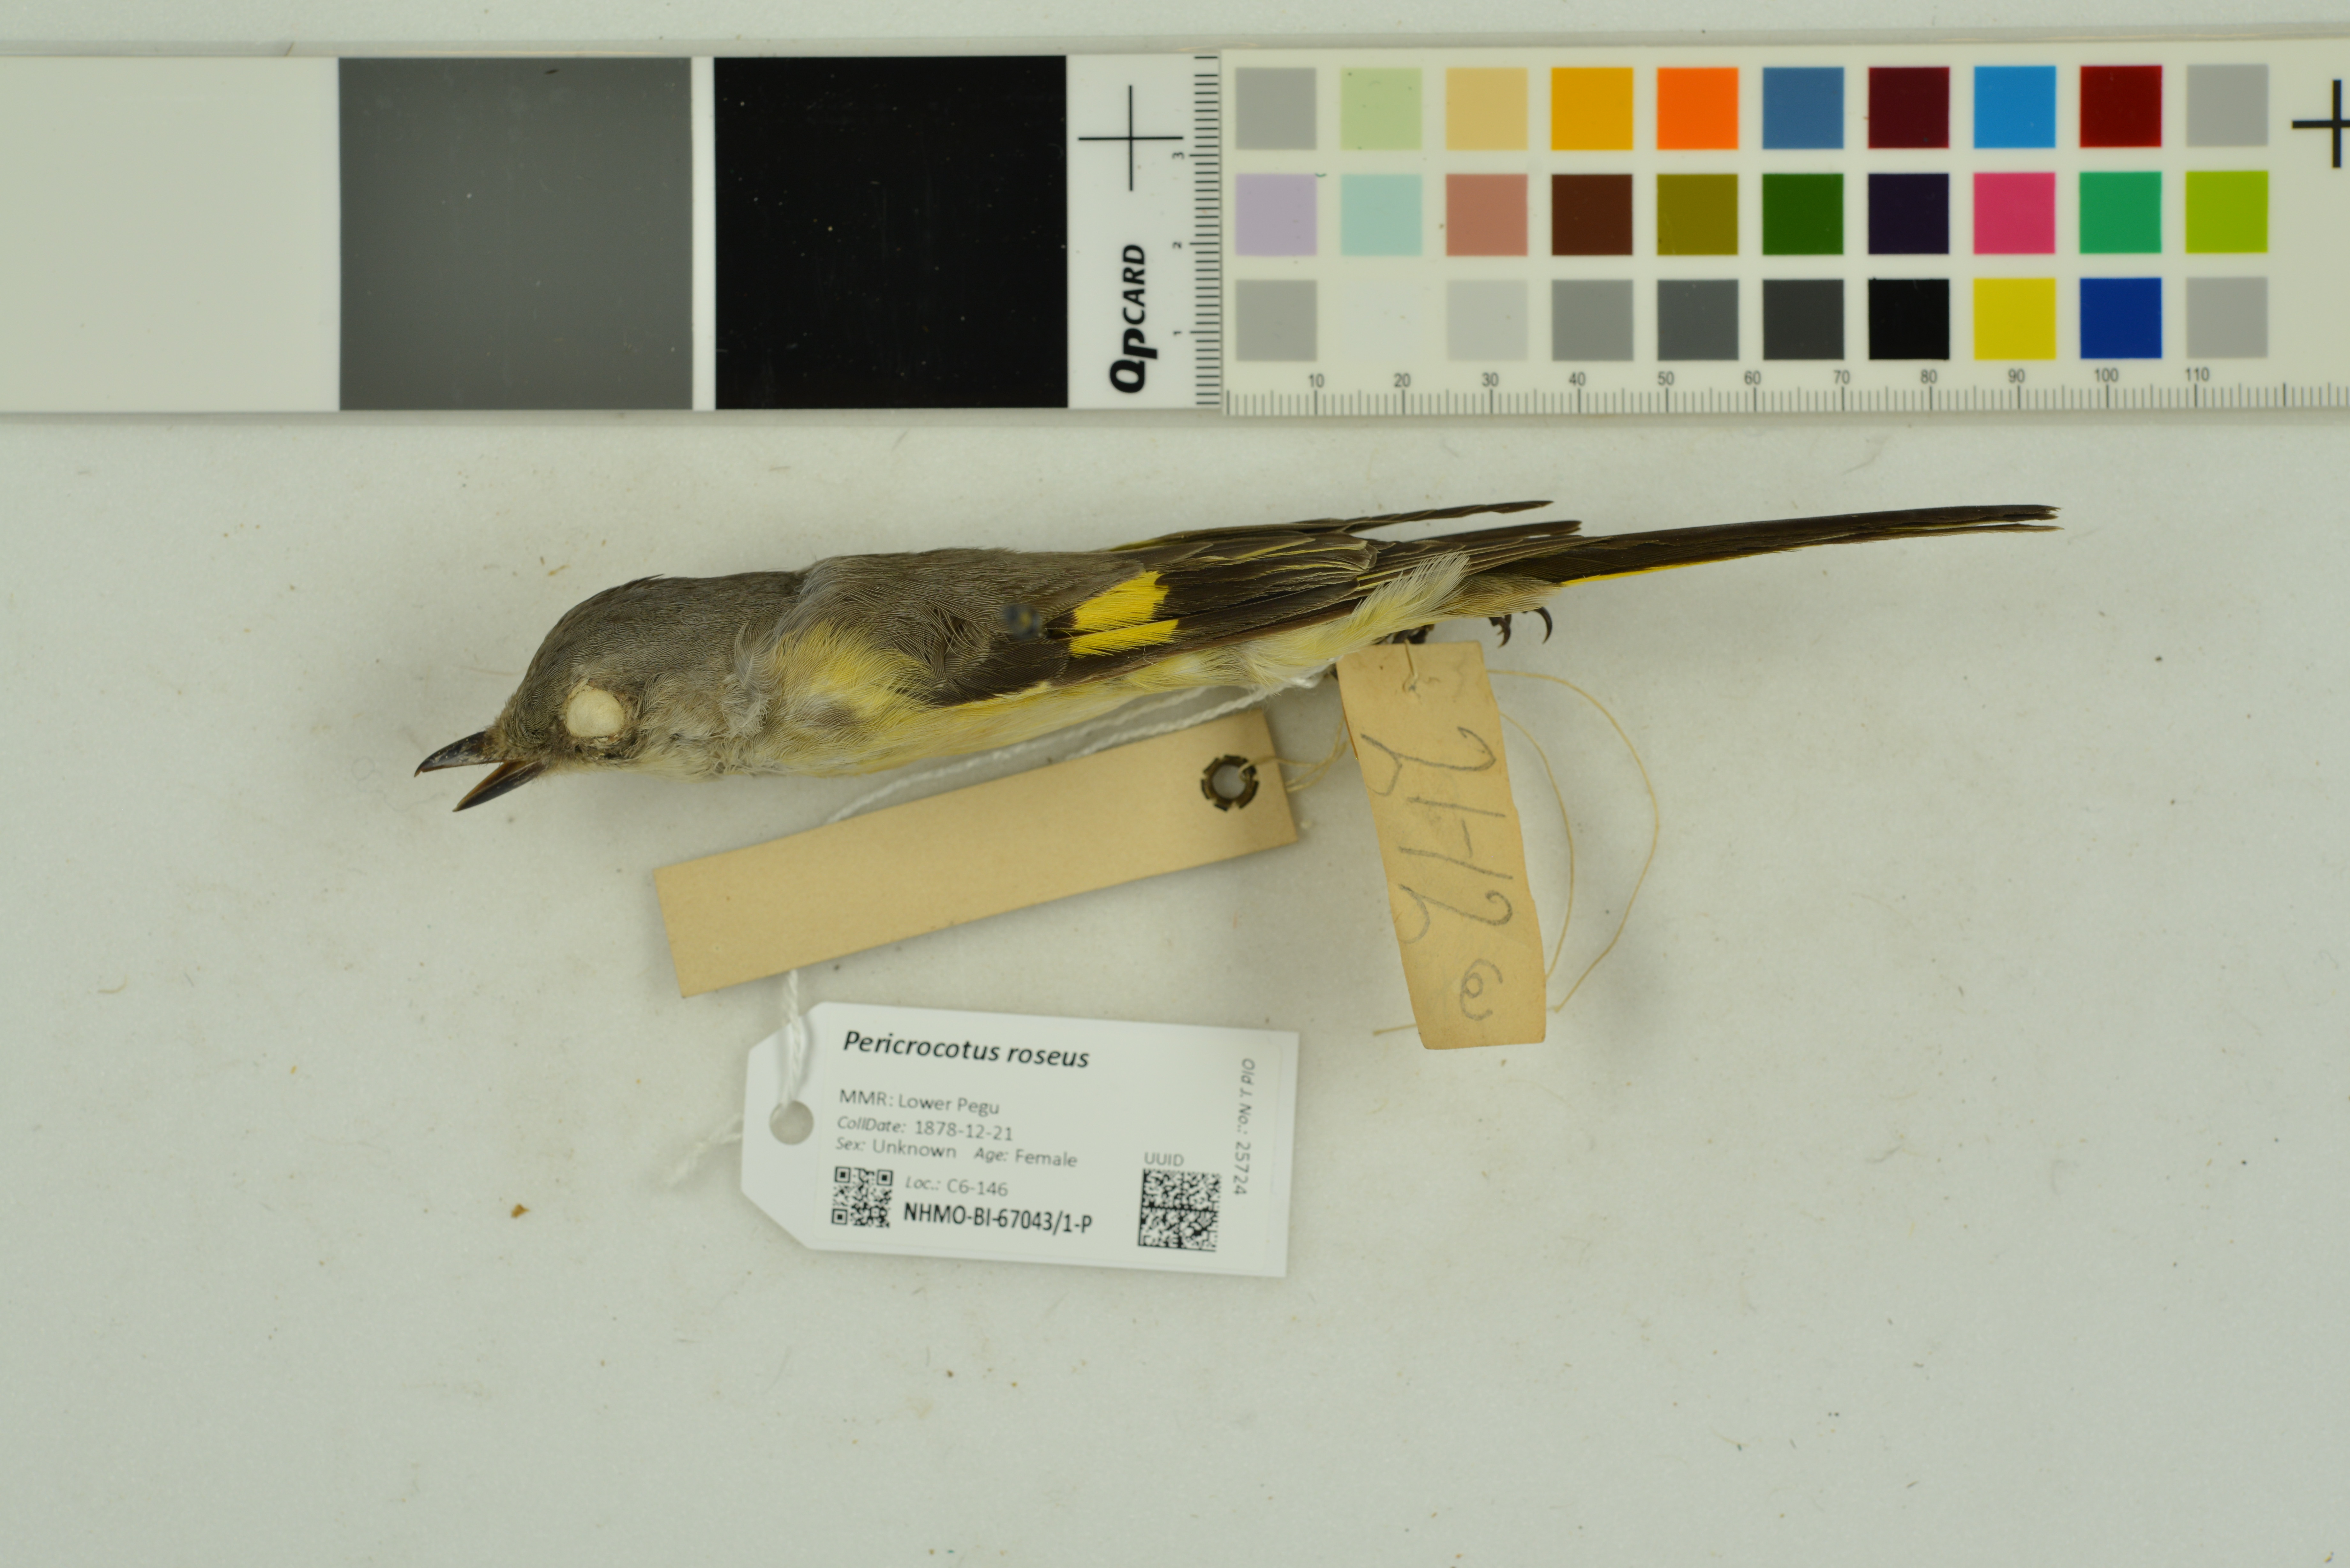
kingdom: Animalia
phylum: Chordata
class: Aves
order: Passeriformes
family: Campephagidae
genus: Pericrocotus
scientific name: Pericrocotus roseus
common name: Rosy minivet
